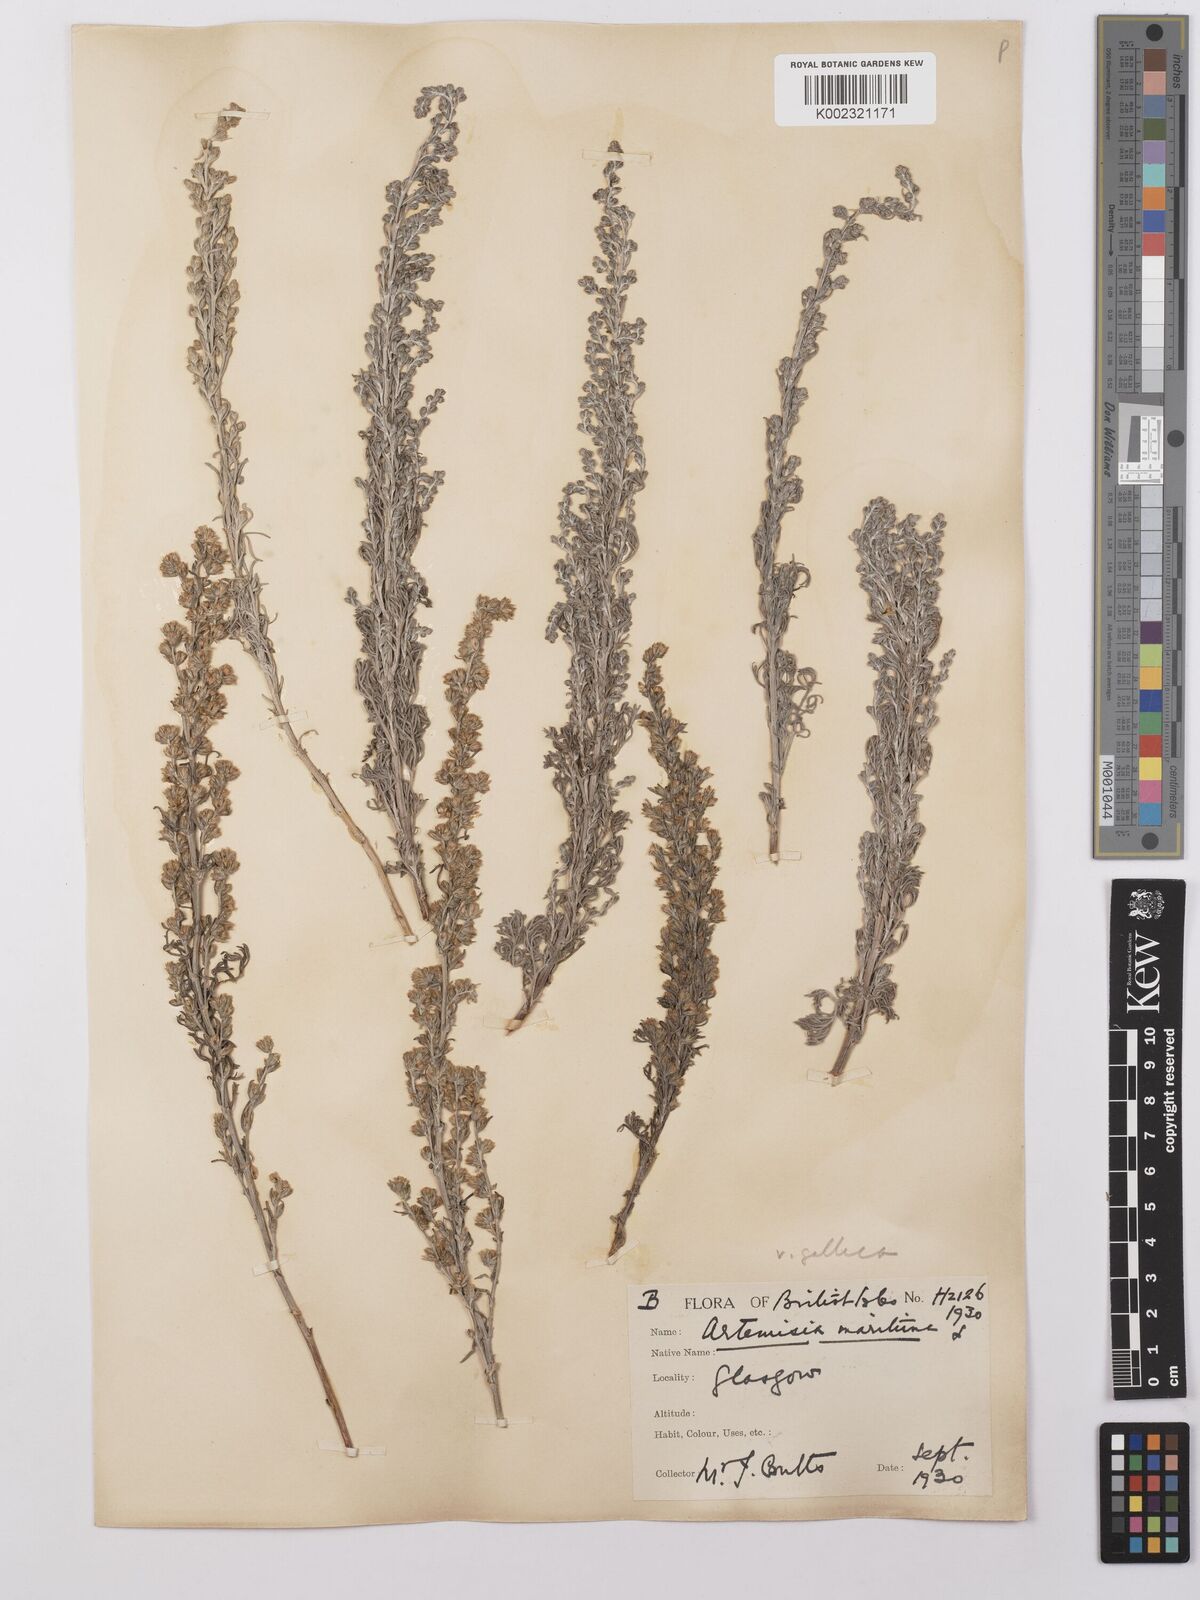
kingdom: Plantae
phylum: Tracheophyta
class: Magnoliopsida
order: Asterales
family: Asteraceae
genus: Artemisia
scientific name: Artemisia maritima
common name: Wormseed
